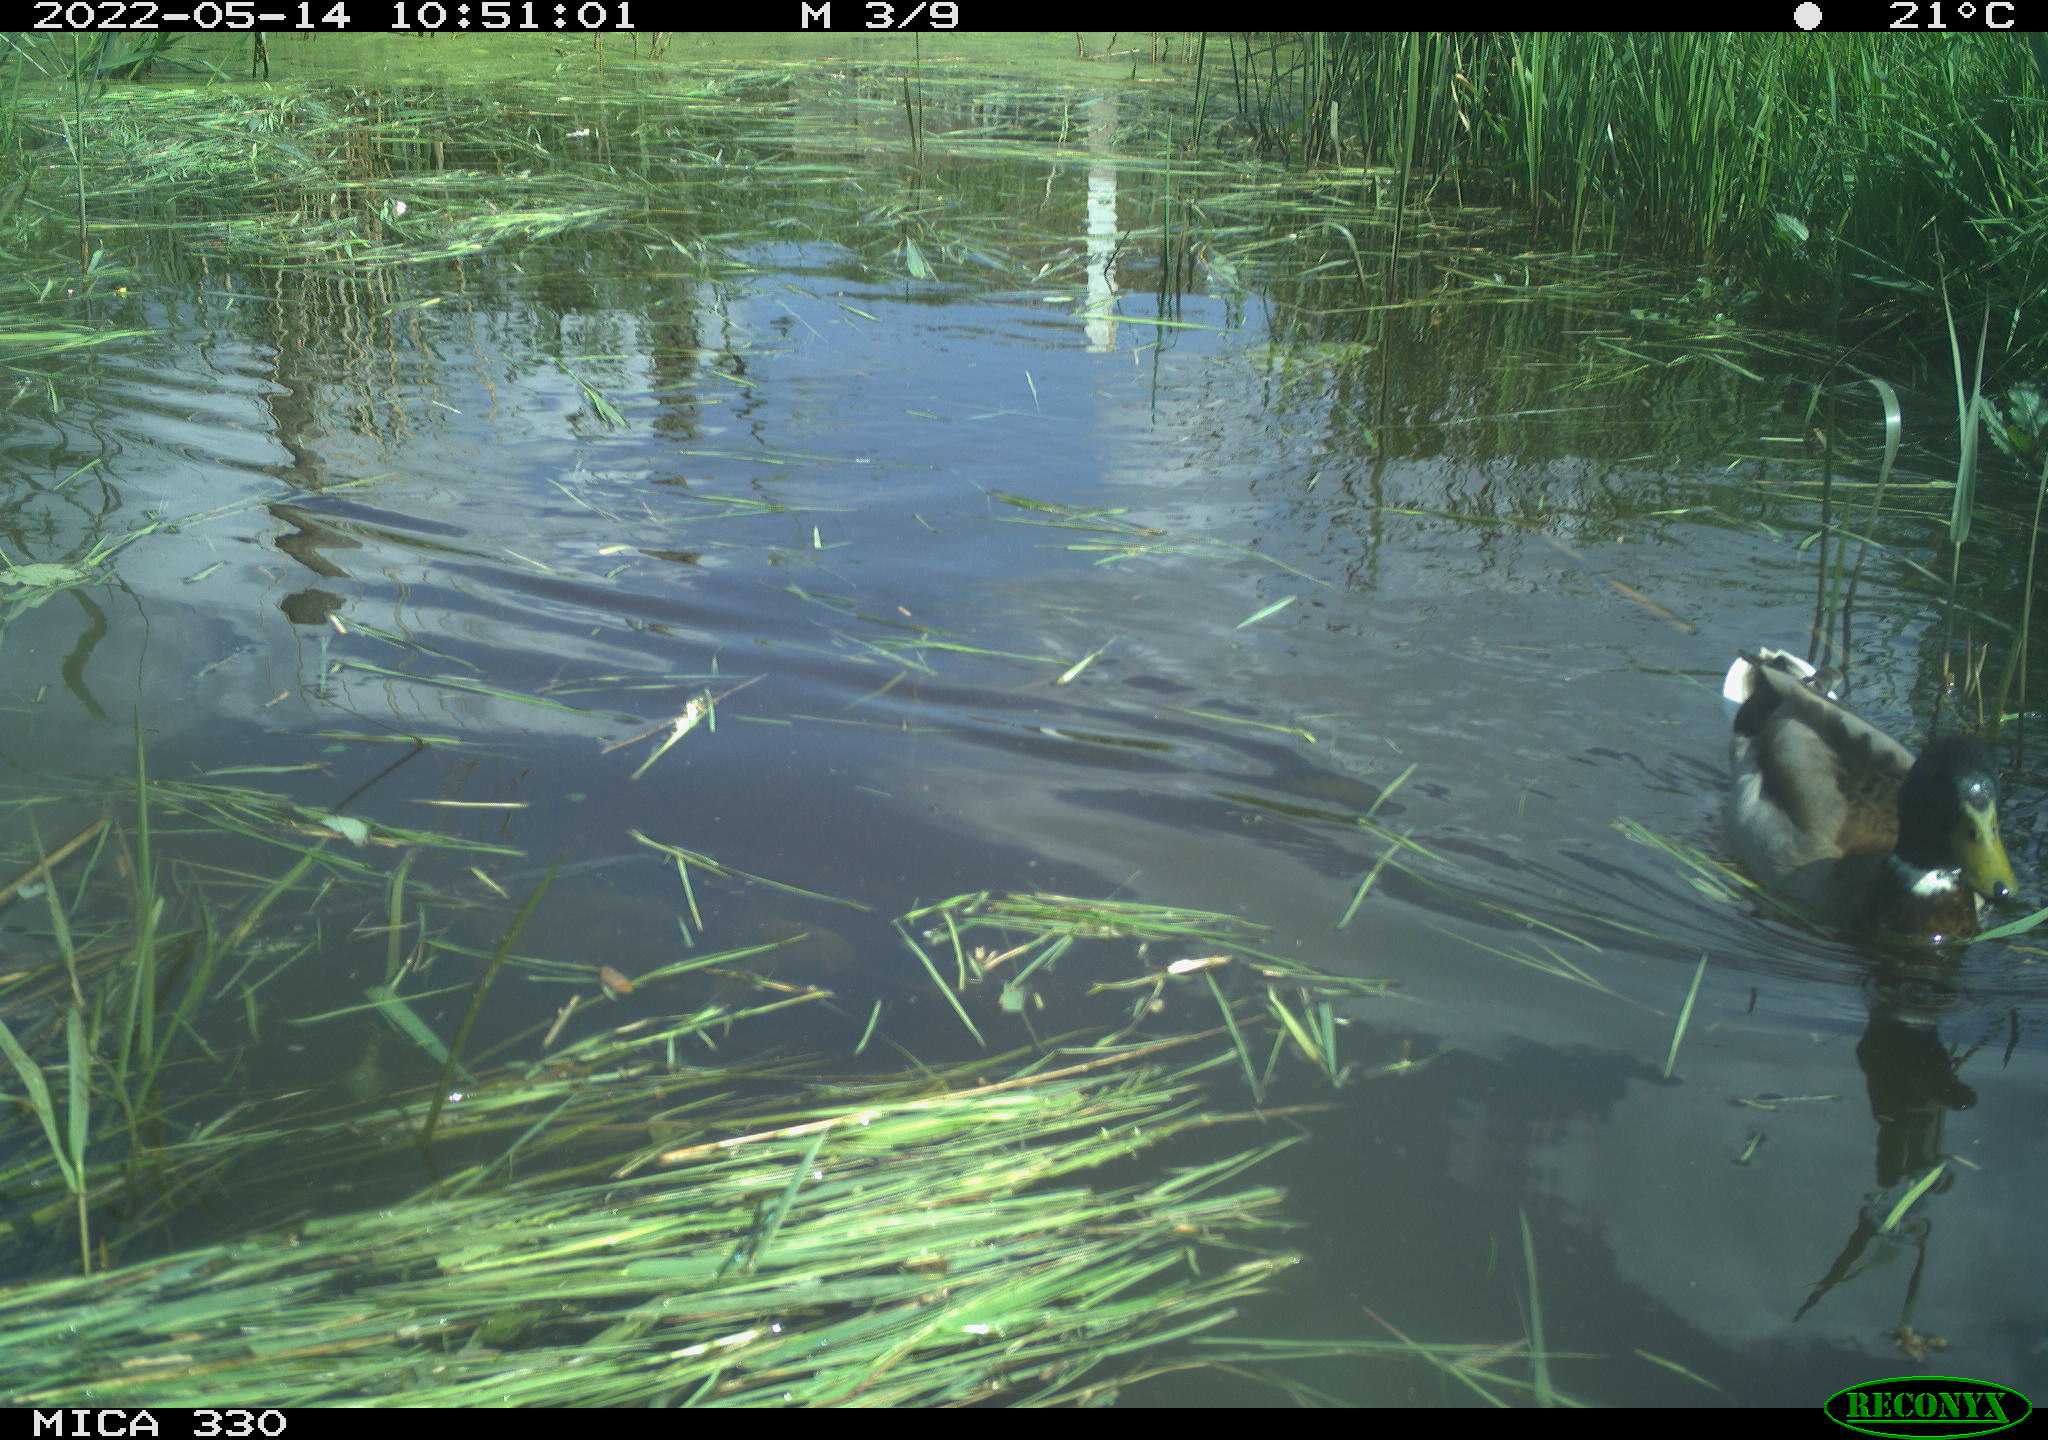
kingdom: Animalia
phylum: Chordata
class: Aves
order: Anseriformes
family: Anatidae
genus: Anas
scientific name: Anas platyrhynchos
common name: Mallard
